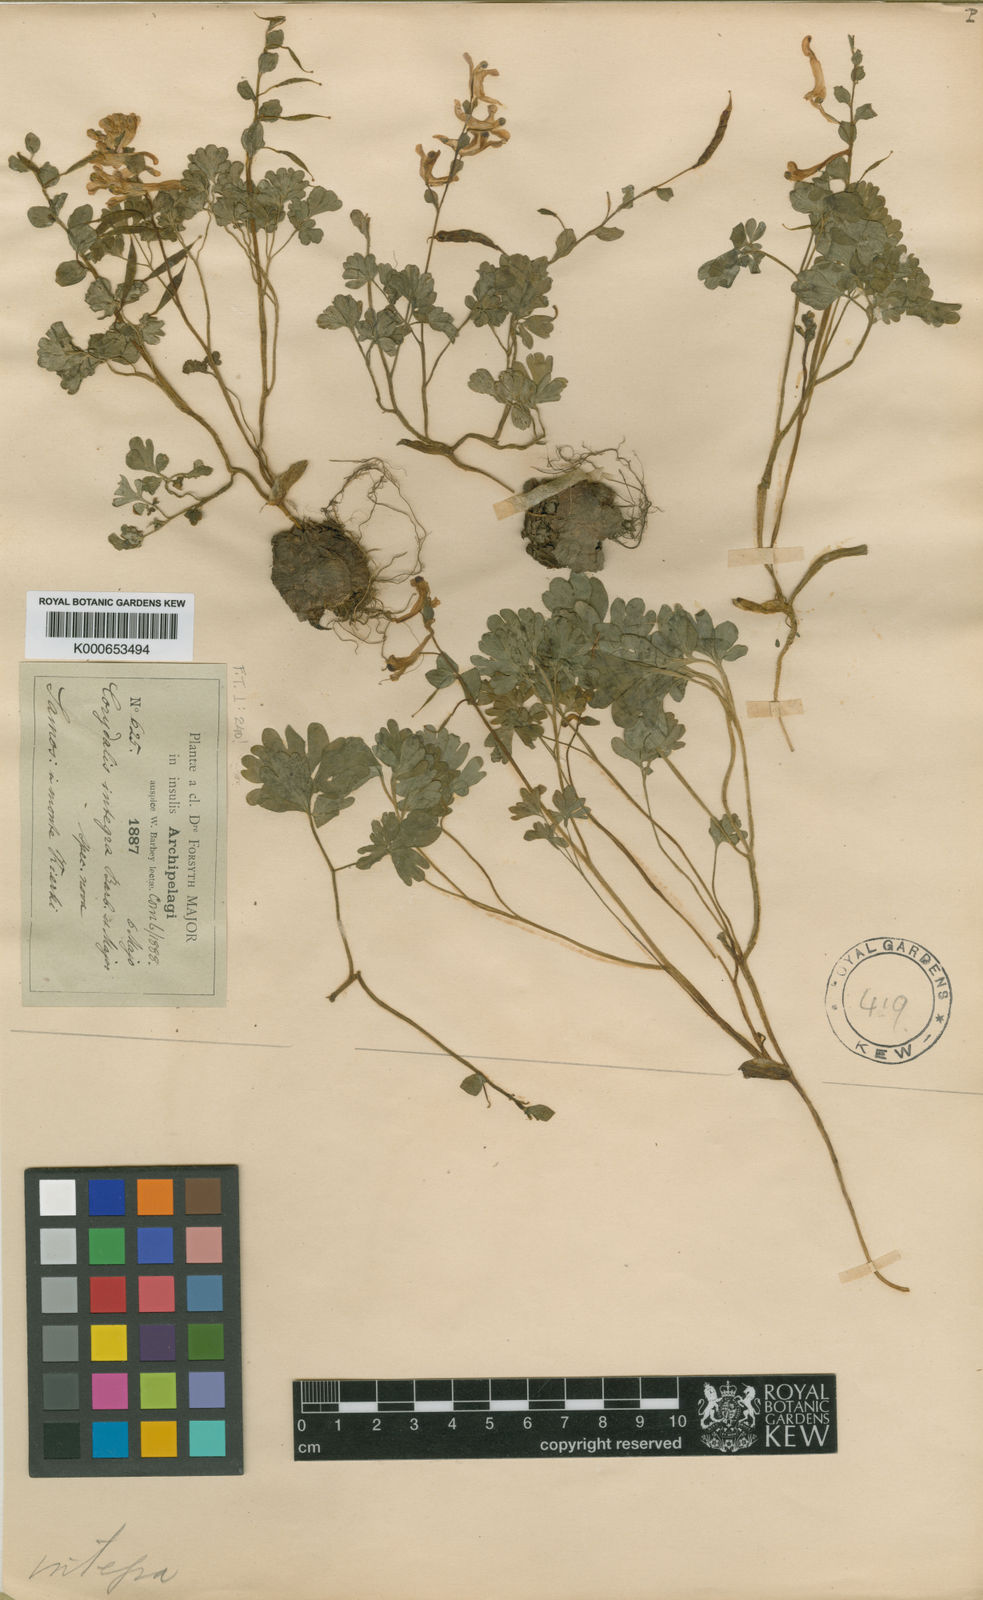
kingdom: Plantae
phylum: Tracheophyta
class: Magnoliopsida
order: Ranunculales
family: Papaveraceae
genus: Corydalis
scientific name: Corydalis integra
